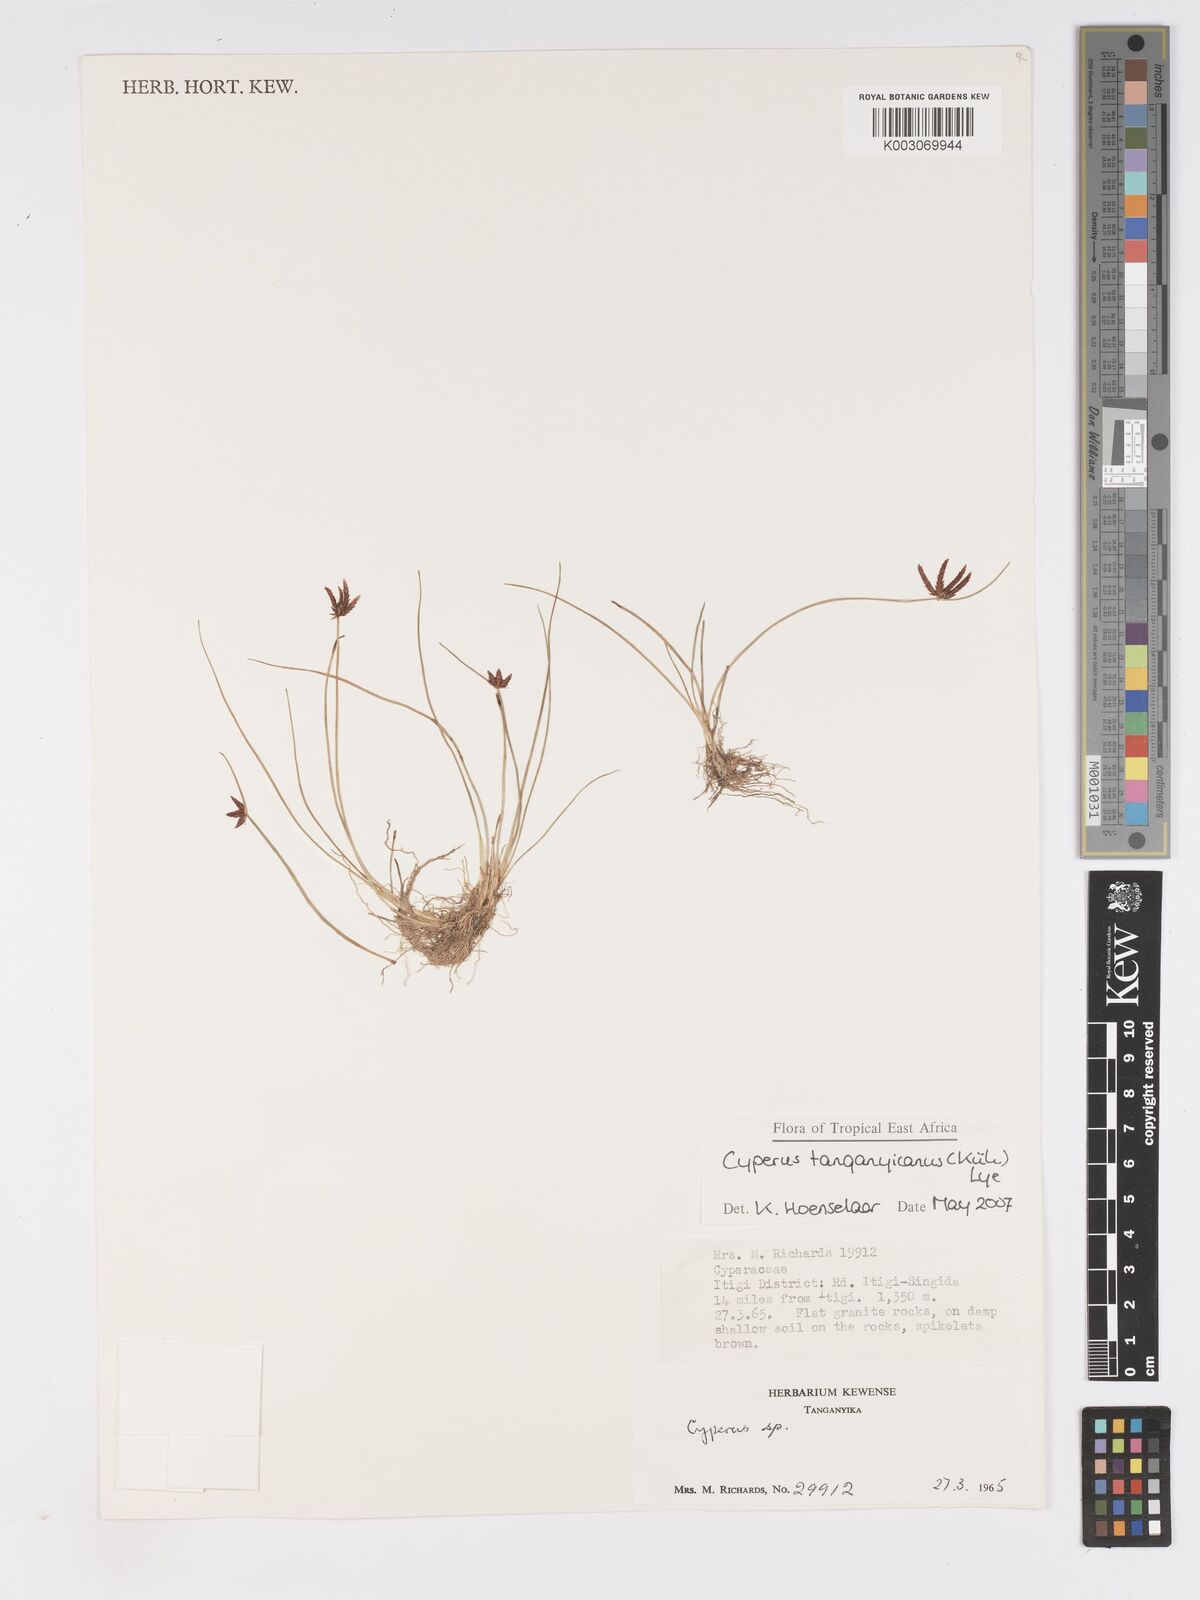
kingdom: Plantae
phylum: Tracheophyta
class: Liliopsida
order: Poales
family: Cyperaceae
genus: Cyperus
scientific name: Cyperus semitrifidus
